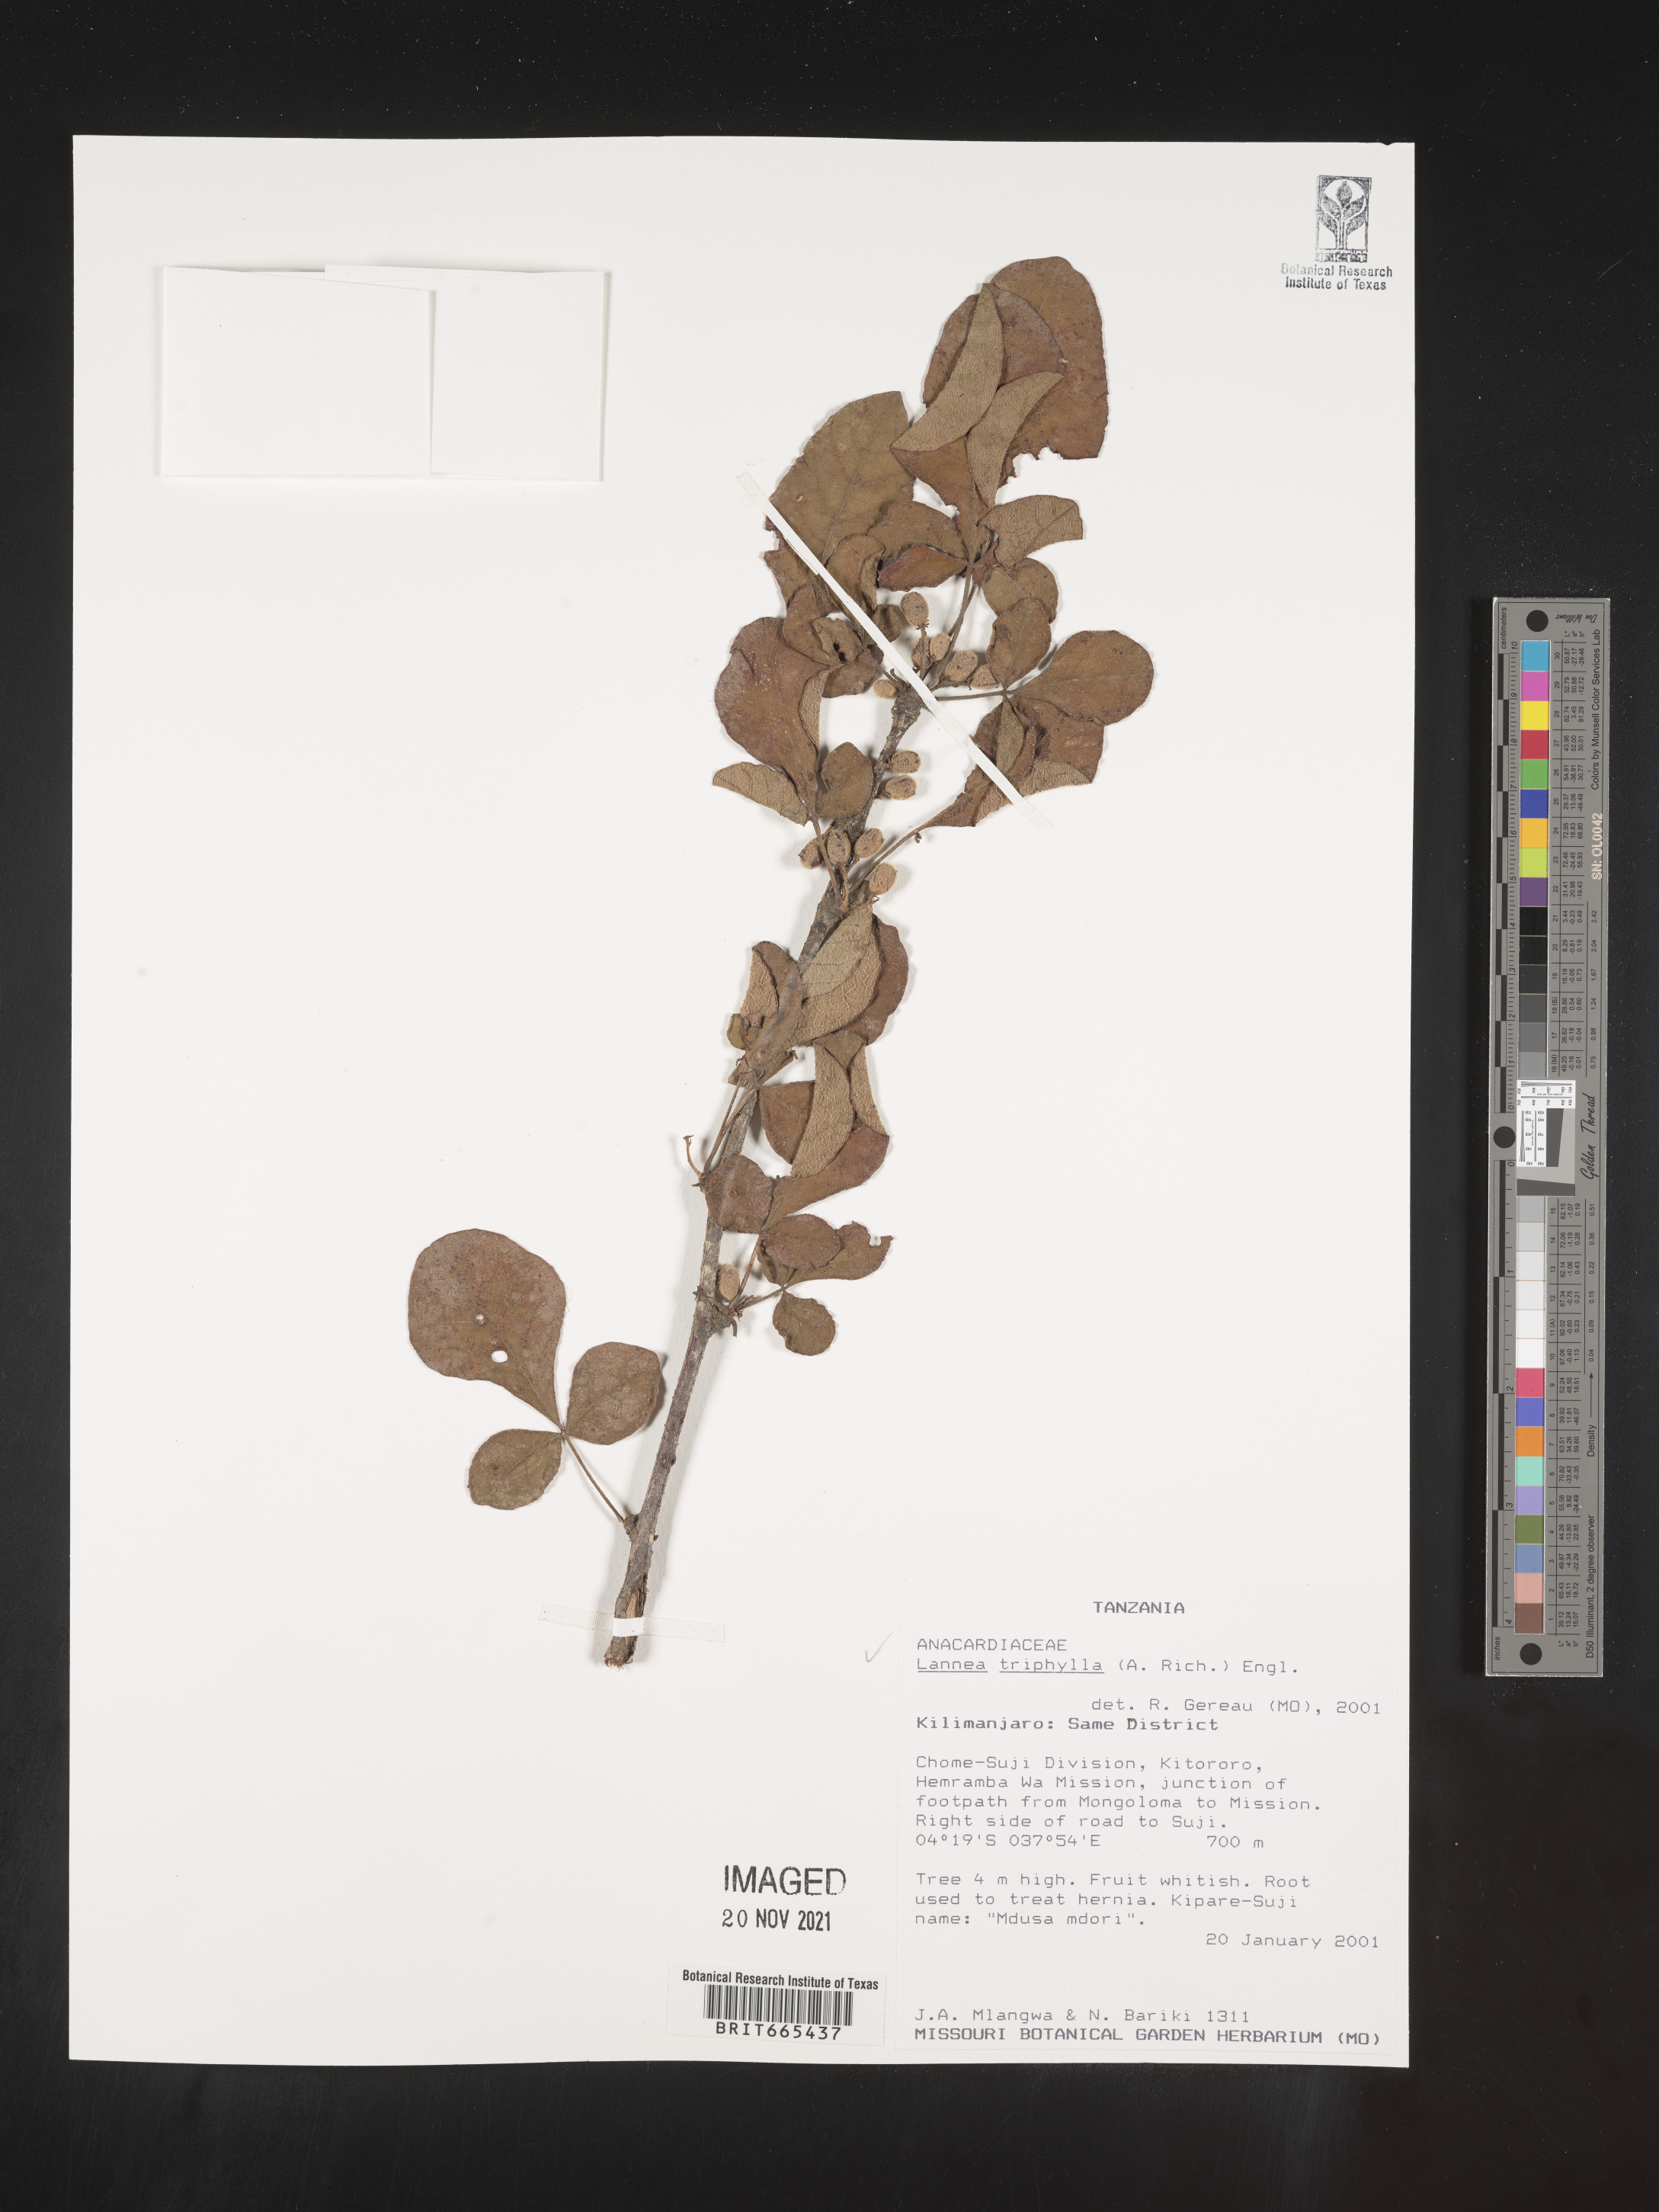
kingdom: Plantae
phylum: Tracheophyta
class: Magnoliopsida
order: Sapindales
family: Anacardiaceae
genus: Lannea
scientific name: Lannea
